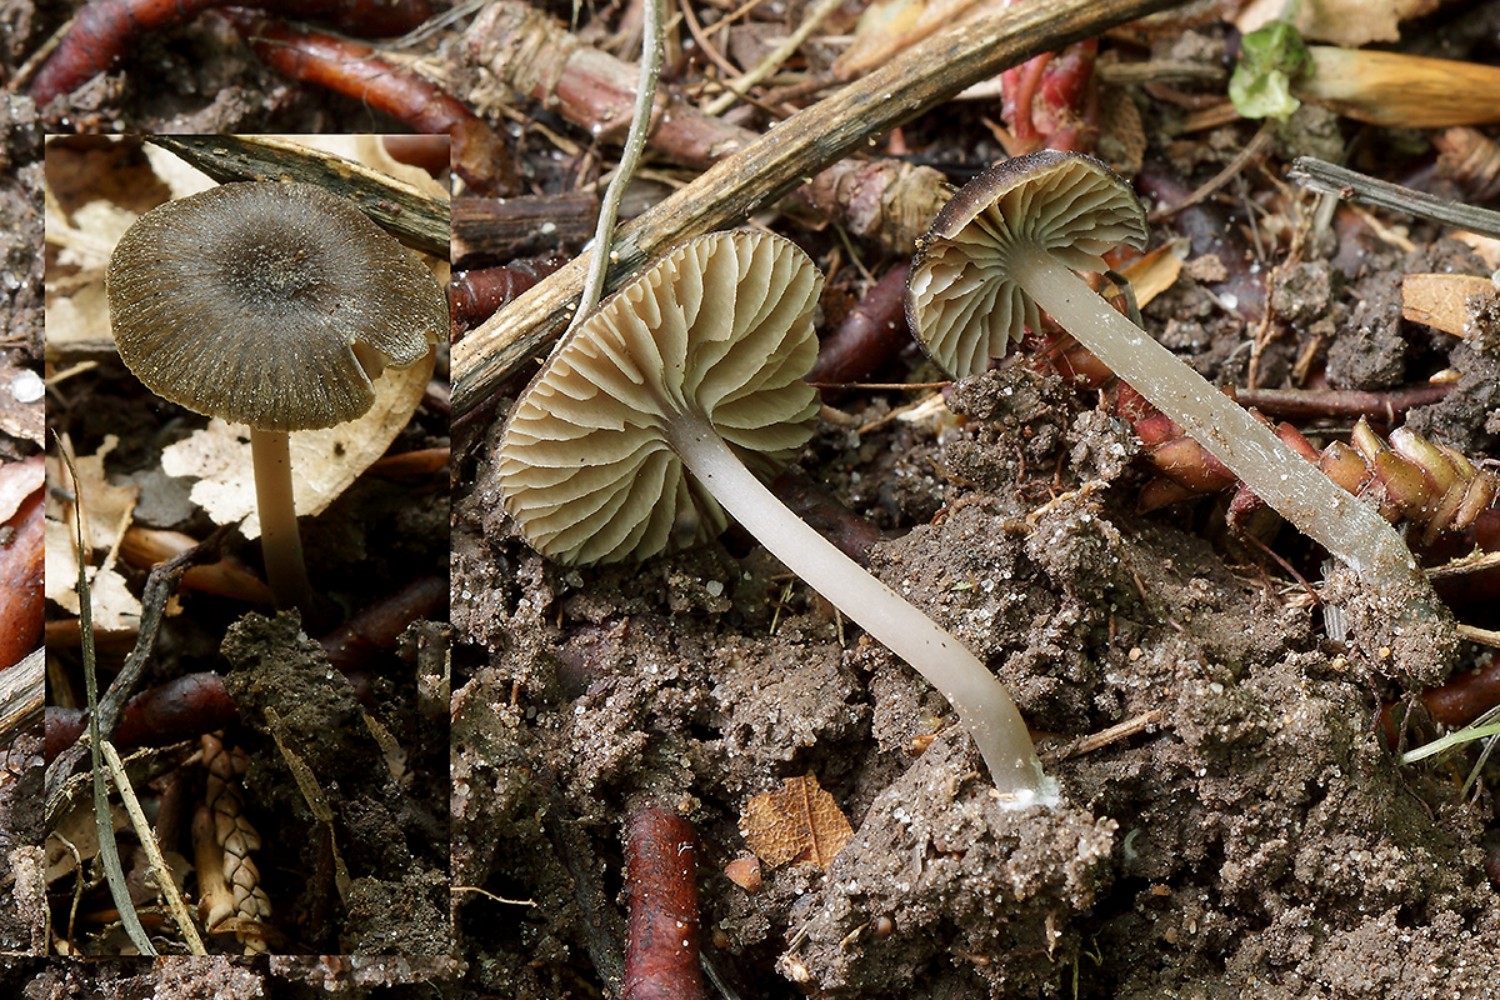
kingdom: Fungi
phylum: Basidiomycota
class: Agaricomycetes
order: Agaricales
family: Entolomataceae
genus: Entoloma
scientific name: Entoloma
